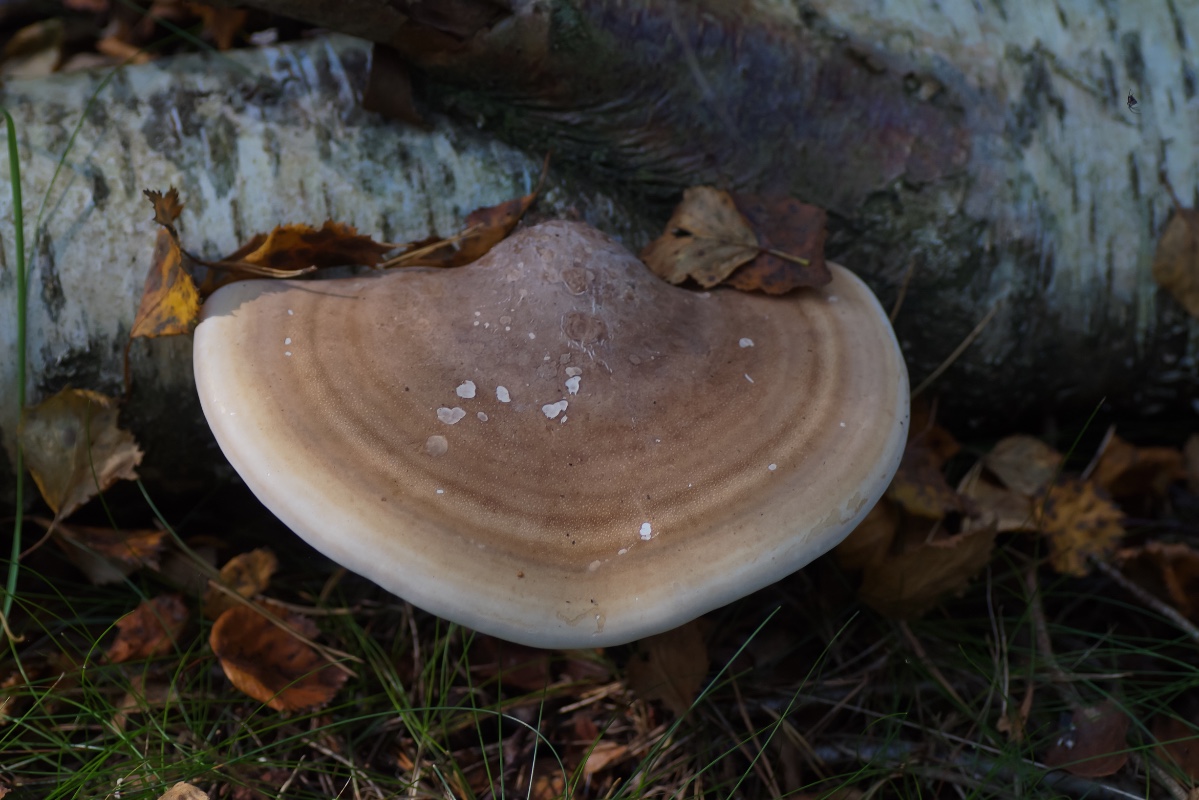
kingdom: Fungi
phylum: Basidiomycota
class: Agaricomycetes
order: Polyporales
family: Fomitopsidaceae
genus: Fomitopsis
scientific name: Fomitopsis betulina
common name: birkeporesvamp
